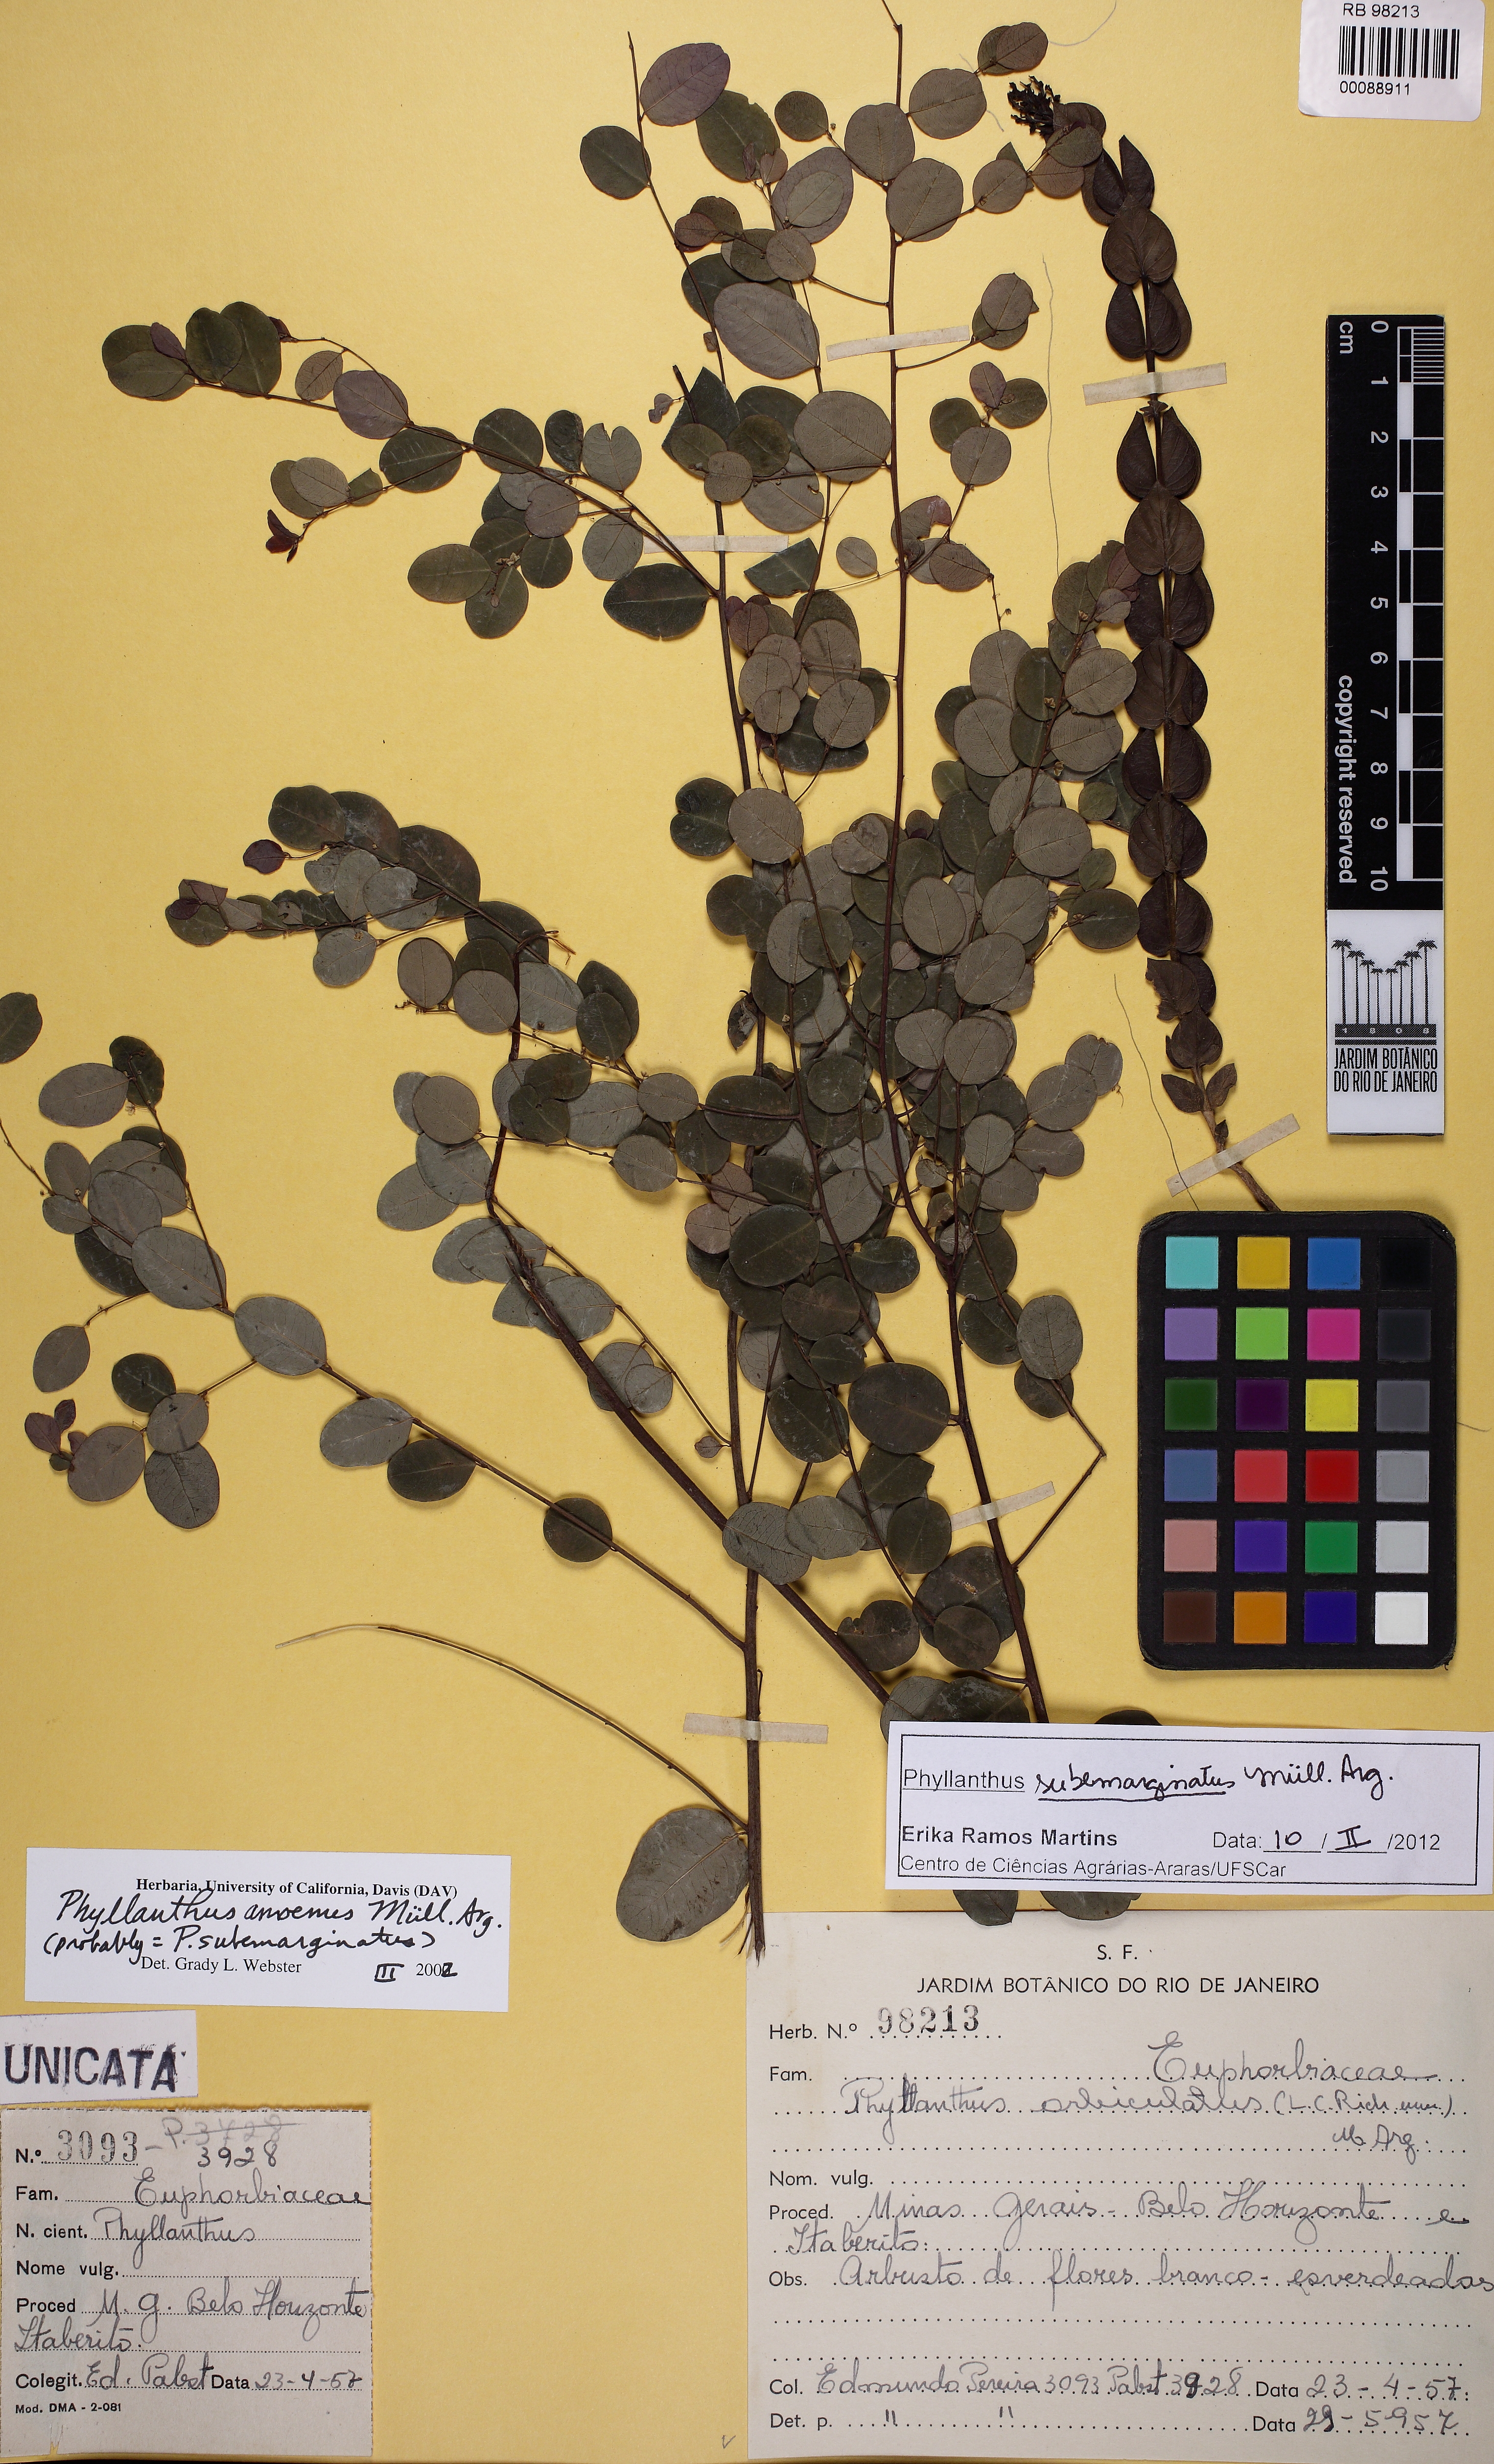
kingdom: Plantae
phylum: Tracheophyta
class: Magnoliopsida
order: Malpighiales
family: Phyllanthaceae
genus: Phyllanthus
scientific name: Phyllanthus subemarginatus
